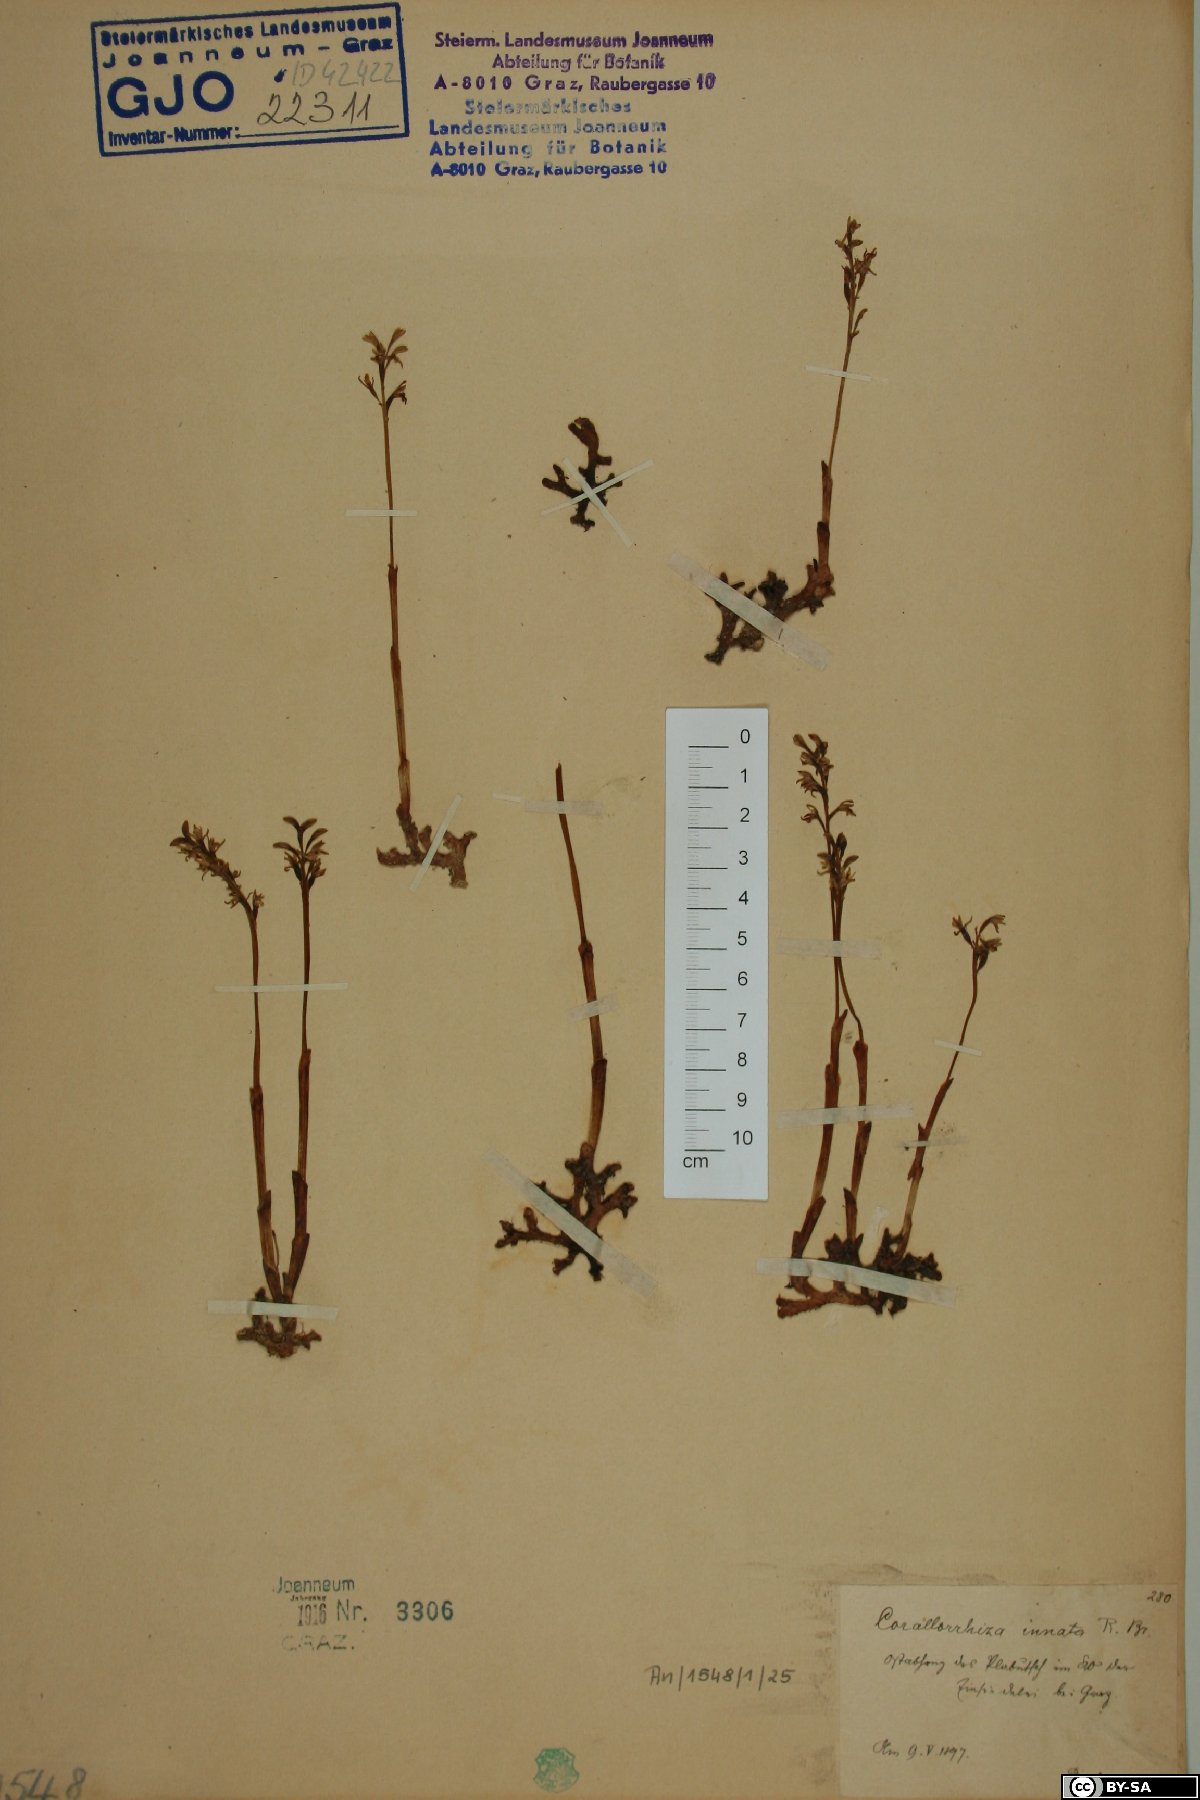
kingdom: Plantae
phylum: Tracheophyta
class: Liliopsida
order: Asparagales
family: Orchidaceae
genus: Corallorhiza
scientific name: Corallorhiza trifida
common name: Yellow coralroot
